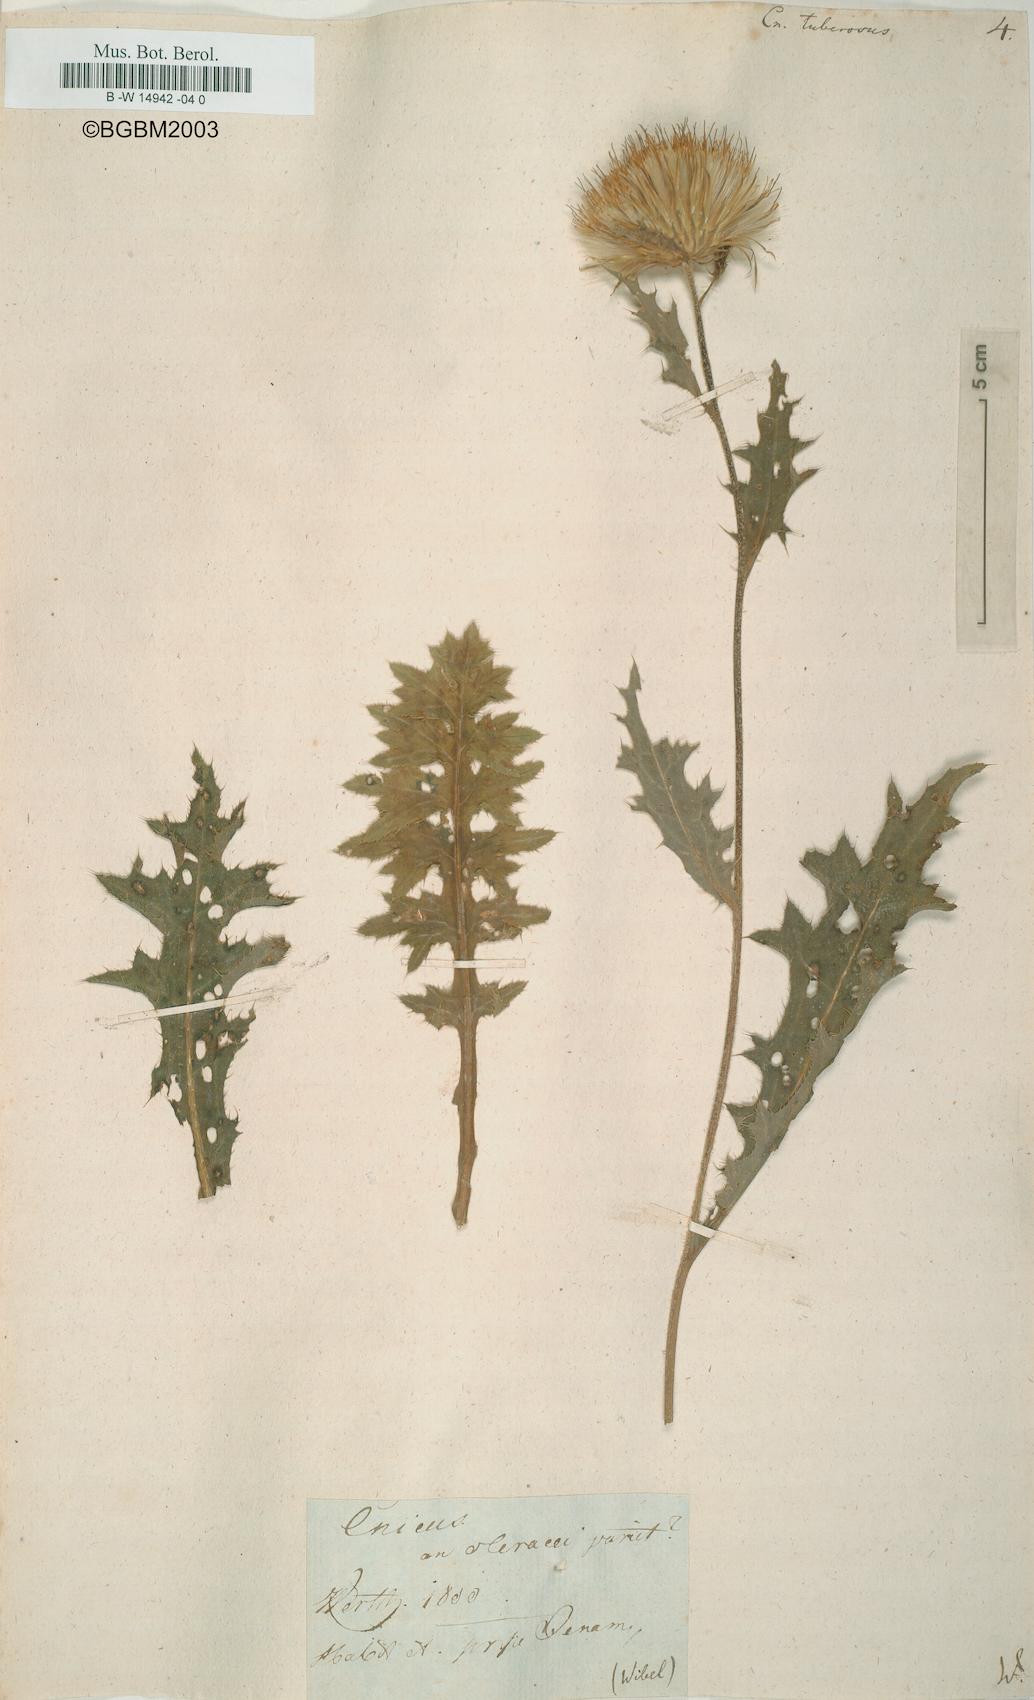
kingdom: Plantae
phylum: Tracheophyta
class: Magnoliopsida
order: Asterales
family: Asteraceae
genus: Cirsium
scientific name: Cirsium Cnicus tuberosus
